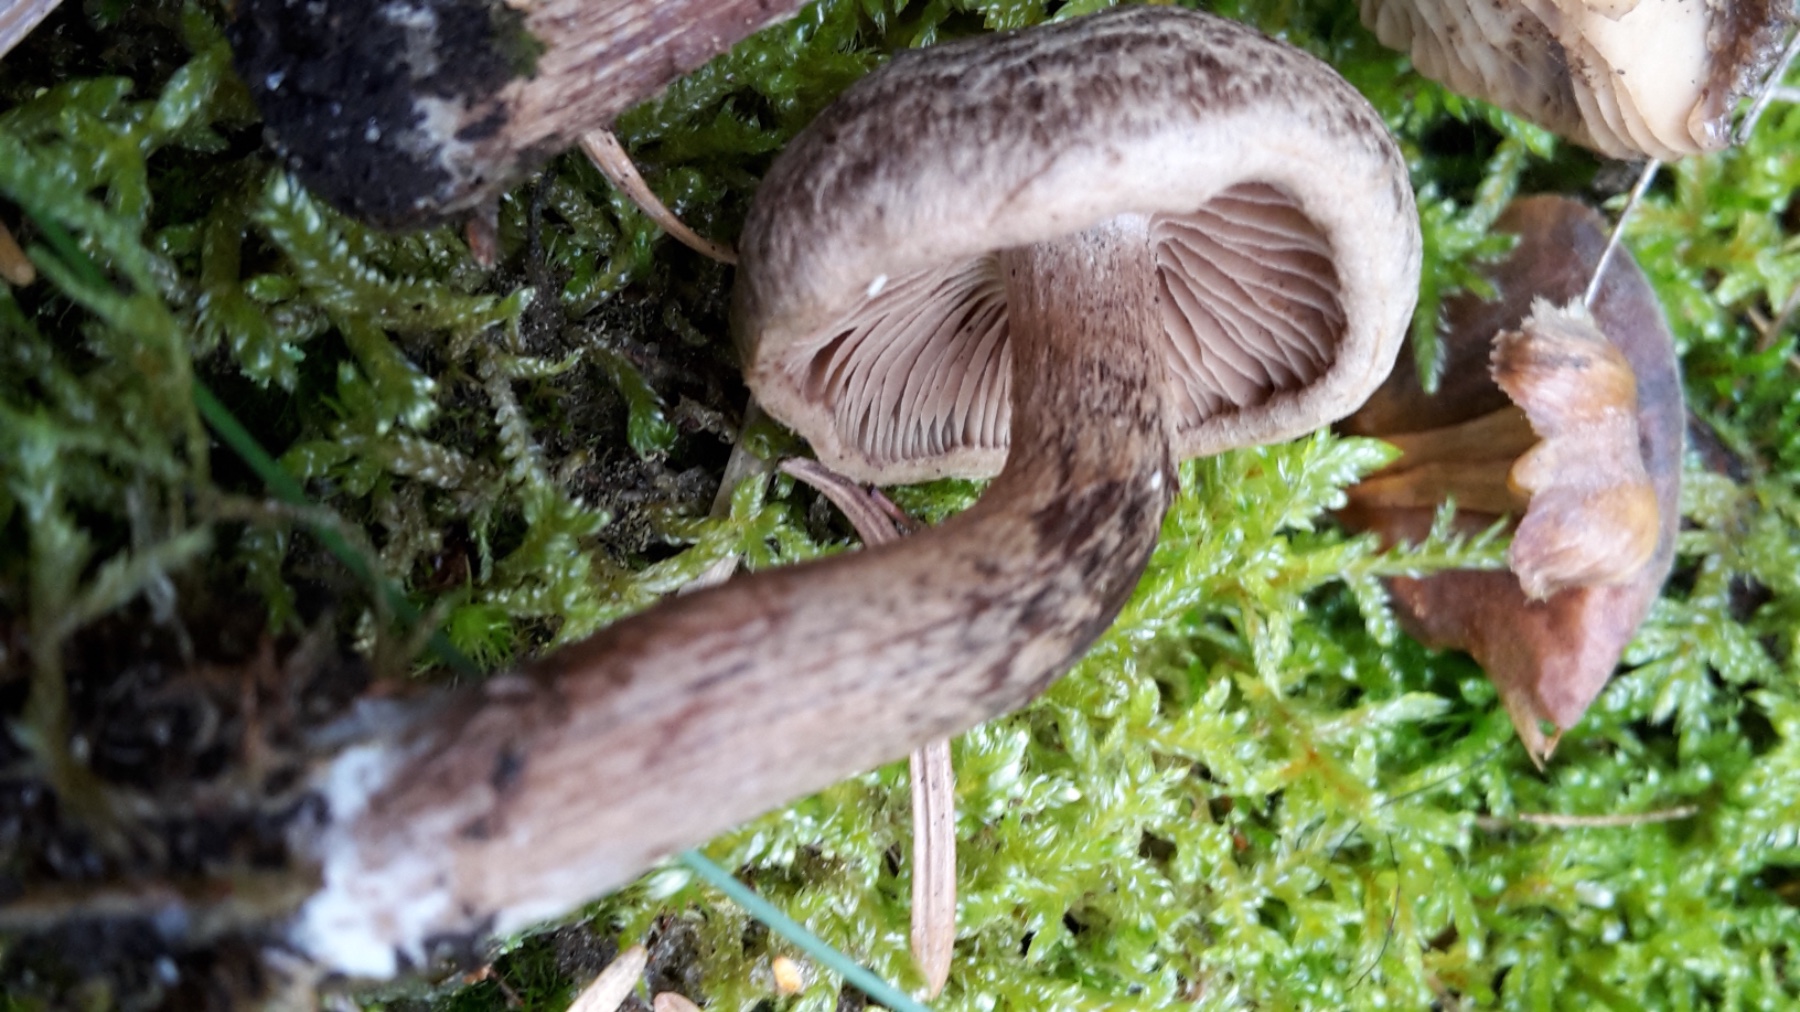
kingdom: Fungi
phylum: Basidiomycota
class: Agaricomycetes
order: Agaricales
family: Inocybaceae
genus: Inocybe
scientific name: Inocybe soluta
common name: lysbladet trævlhat
